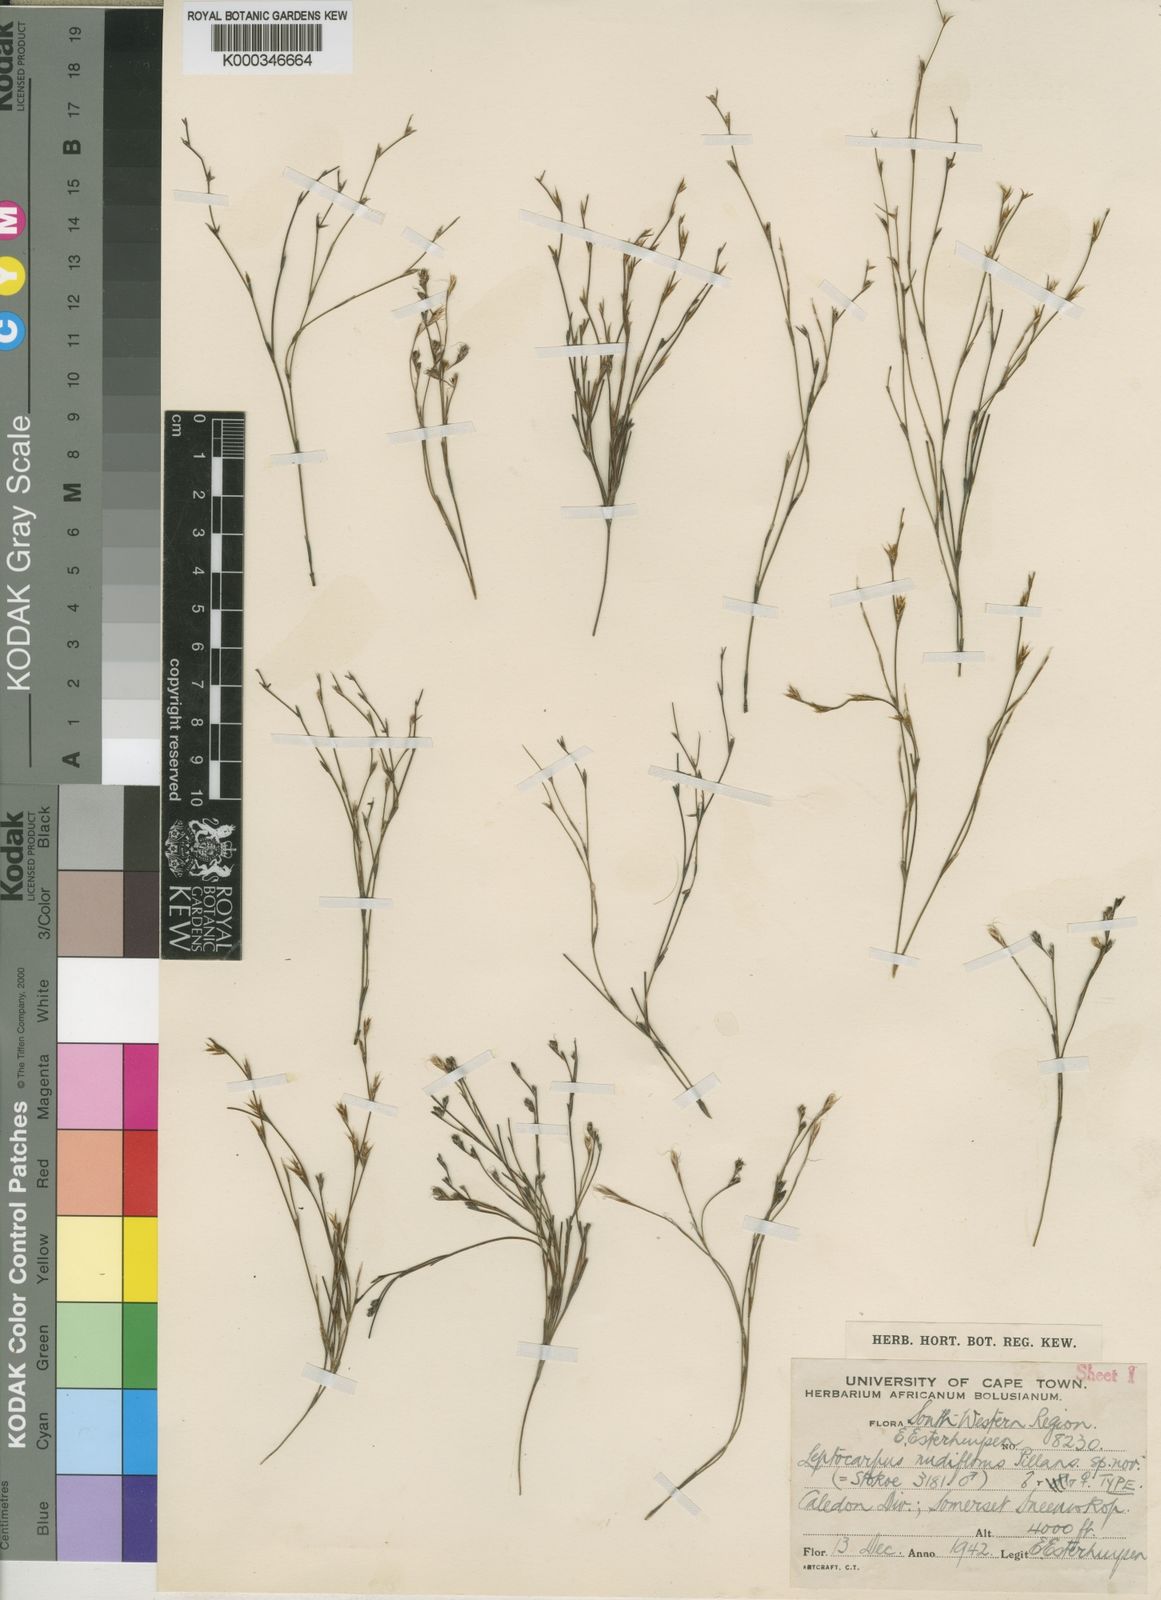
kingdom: Plantae
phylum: Tracheophyta
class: Liliopsida
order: Poales
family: Restionaceae
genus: Restio
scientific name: Restio nudiflorus
